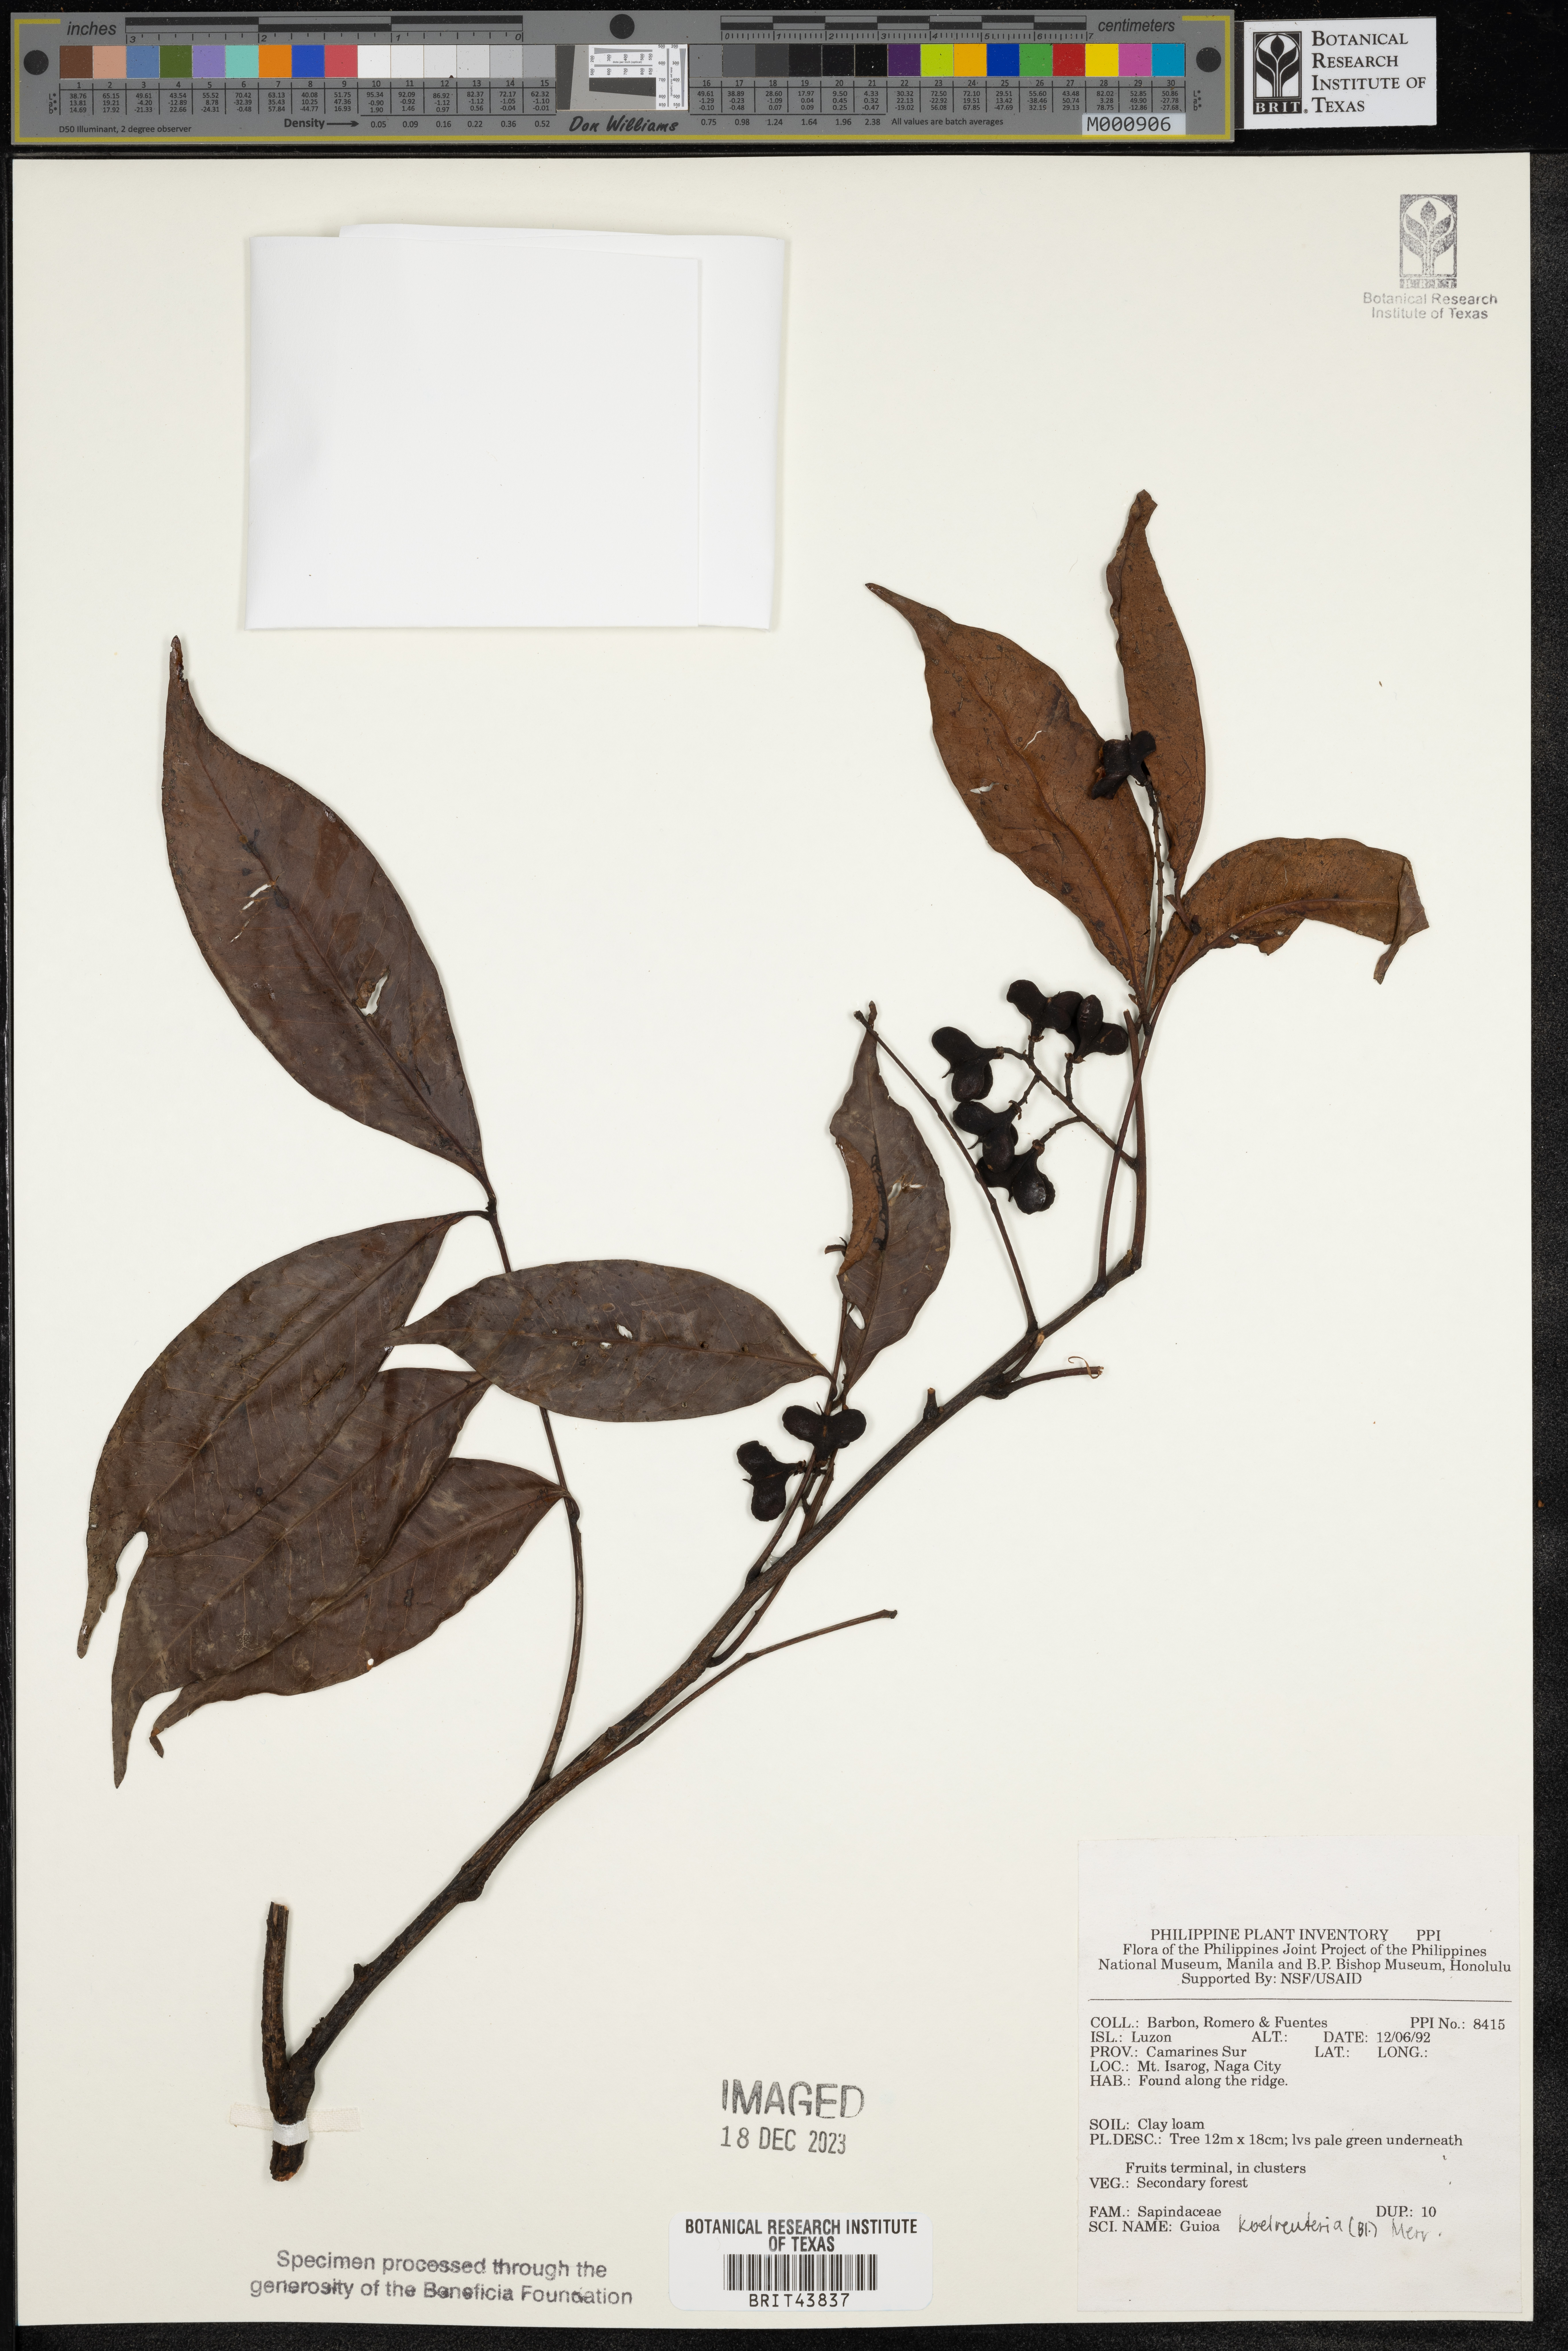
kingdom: Plantae
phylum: Tracheophyta
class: Magnoliopsida
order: Sapindales
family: Sapindaceae
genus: Guioa
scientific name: Guioa koelreuteria
